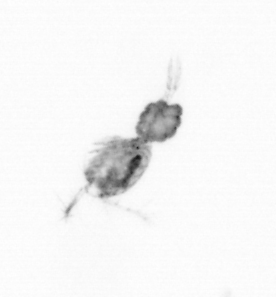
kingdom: Animalia
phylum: Arthropoda
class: Copepoda
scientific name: Copepoda
